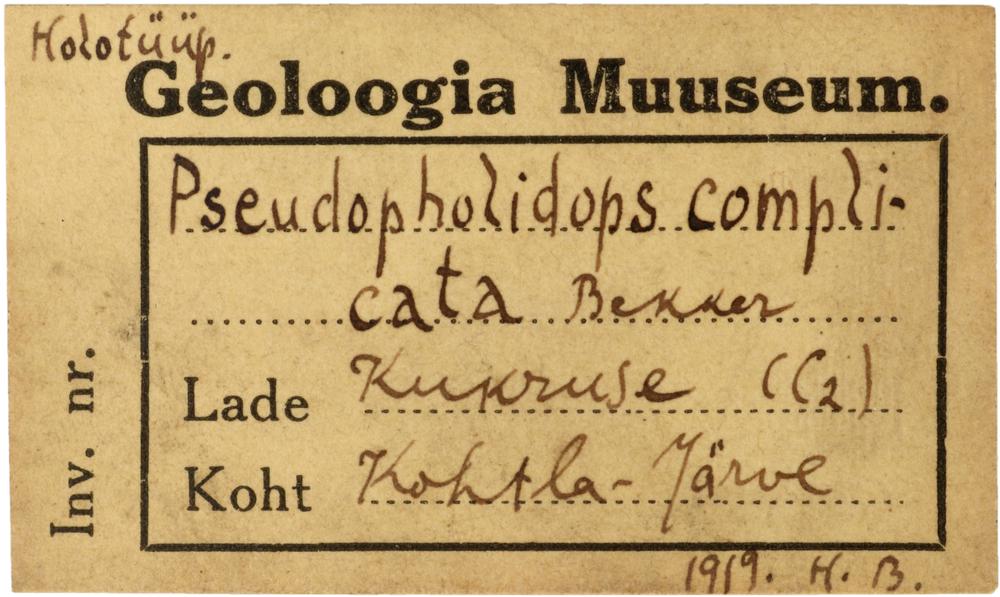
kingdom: Animalia
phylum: Brachiopoda
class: Craniata
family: Craniopsidae
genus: Craniops
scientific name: Craniops
